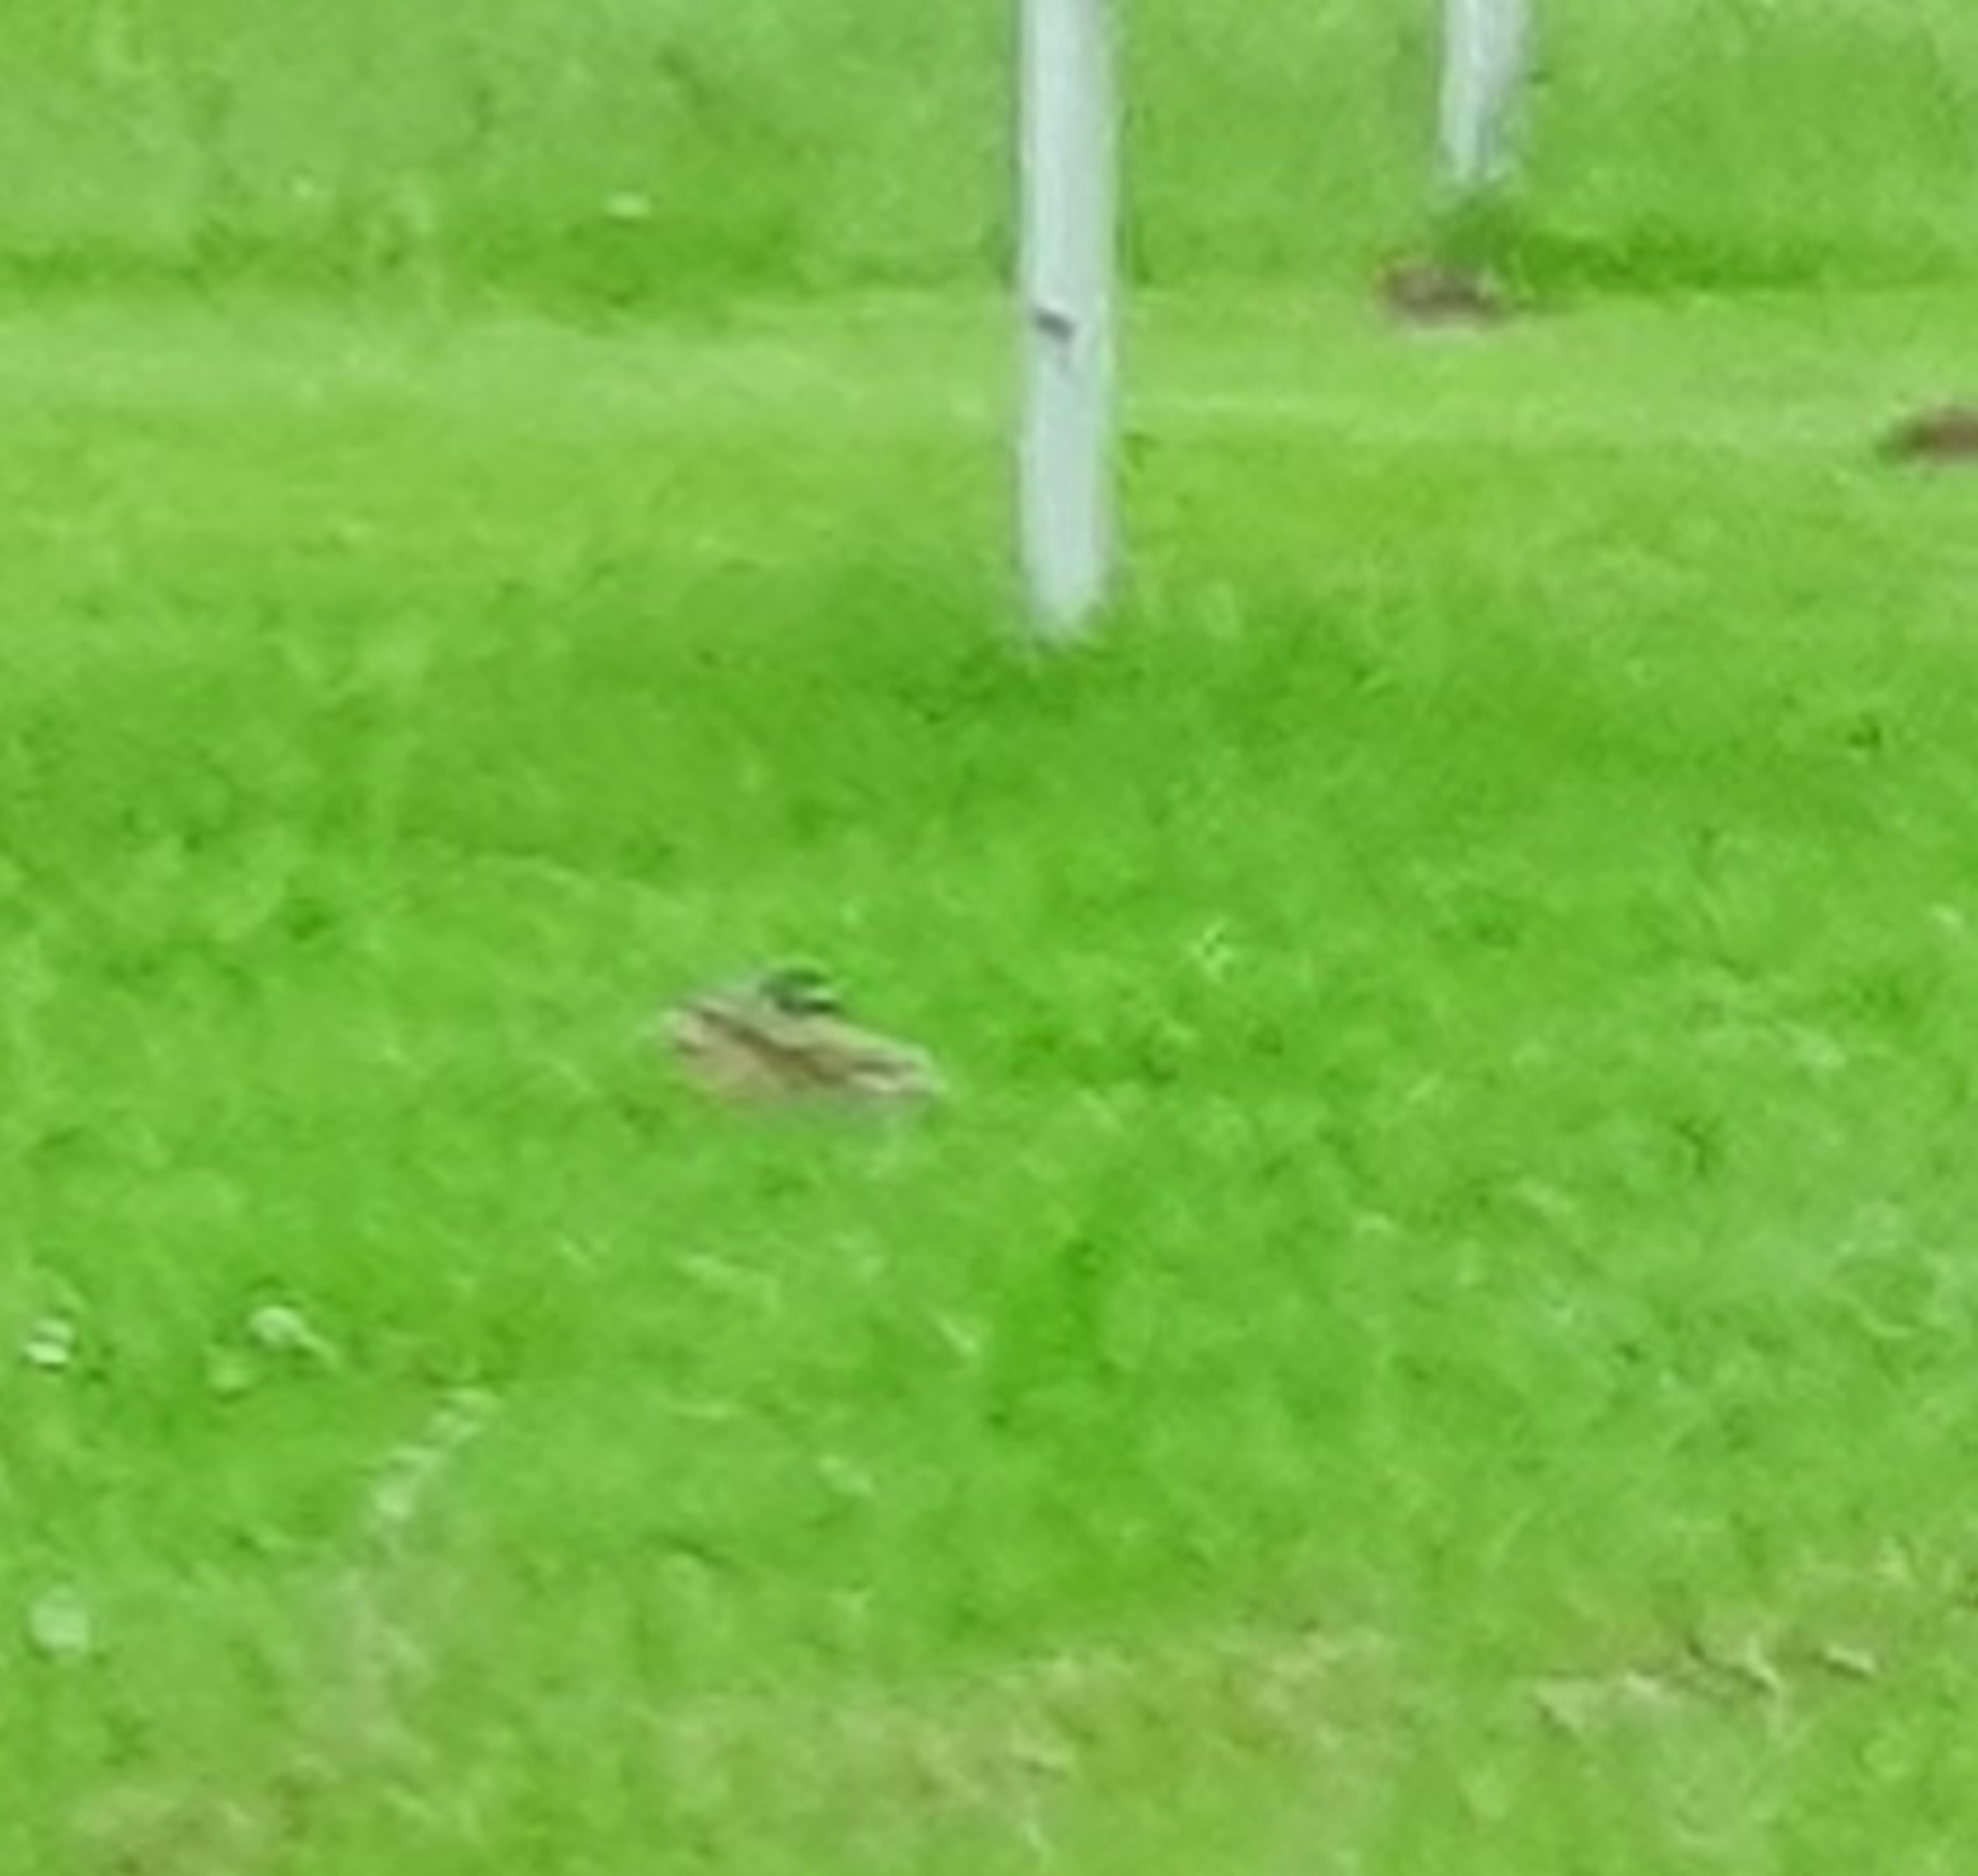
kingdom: Animalia
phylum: Chordata
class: Mammalia
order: Lagomorpha
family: Leporidae
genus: Lepus
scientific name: Lepus europaeus
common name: Hare
